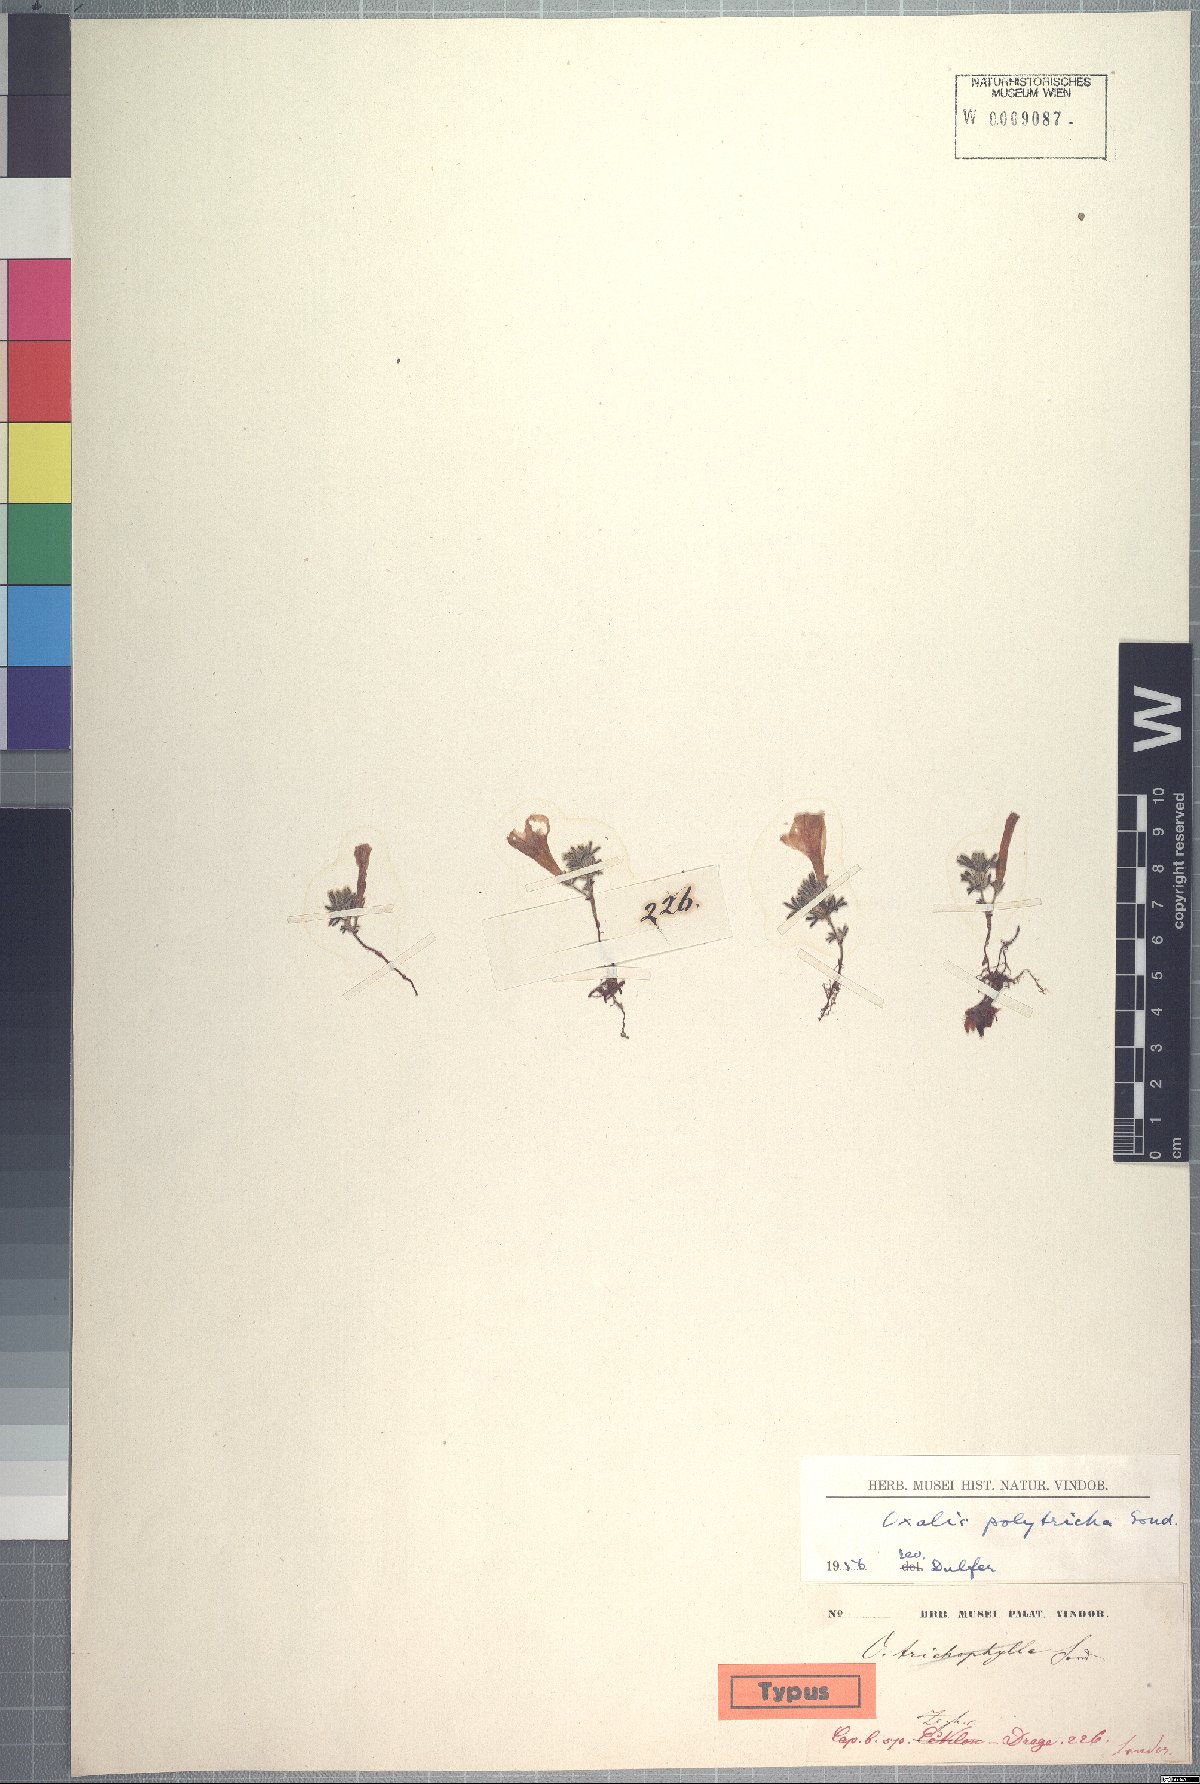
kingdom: Plantae
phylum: Tracheophyta
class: Magnoliopsida
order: Oxalidales
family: Oxalidaceae
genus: Oxalis
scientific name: Oxalis linearis
